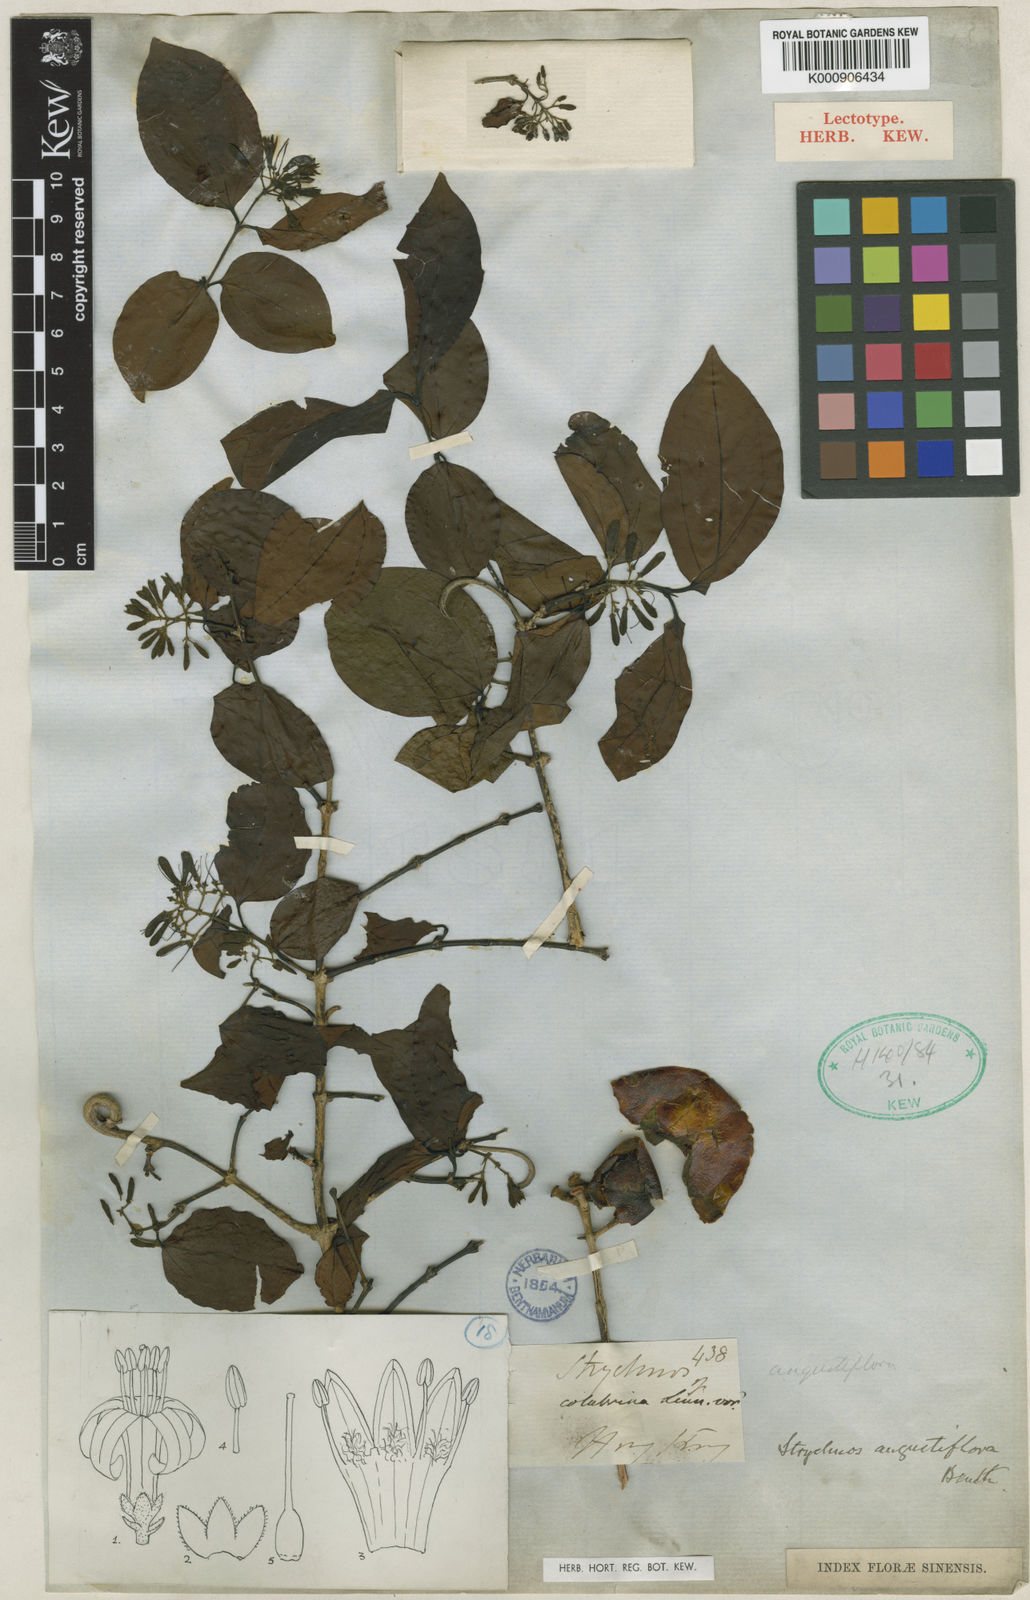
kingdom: Plantae
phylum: Tracheophyta
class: Magnoliopsida
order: Gentianales
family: Loganiaceae
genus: Strychnos
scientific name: Strychnos angustiflora
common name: Narrow-flower poisonnut
